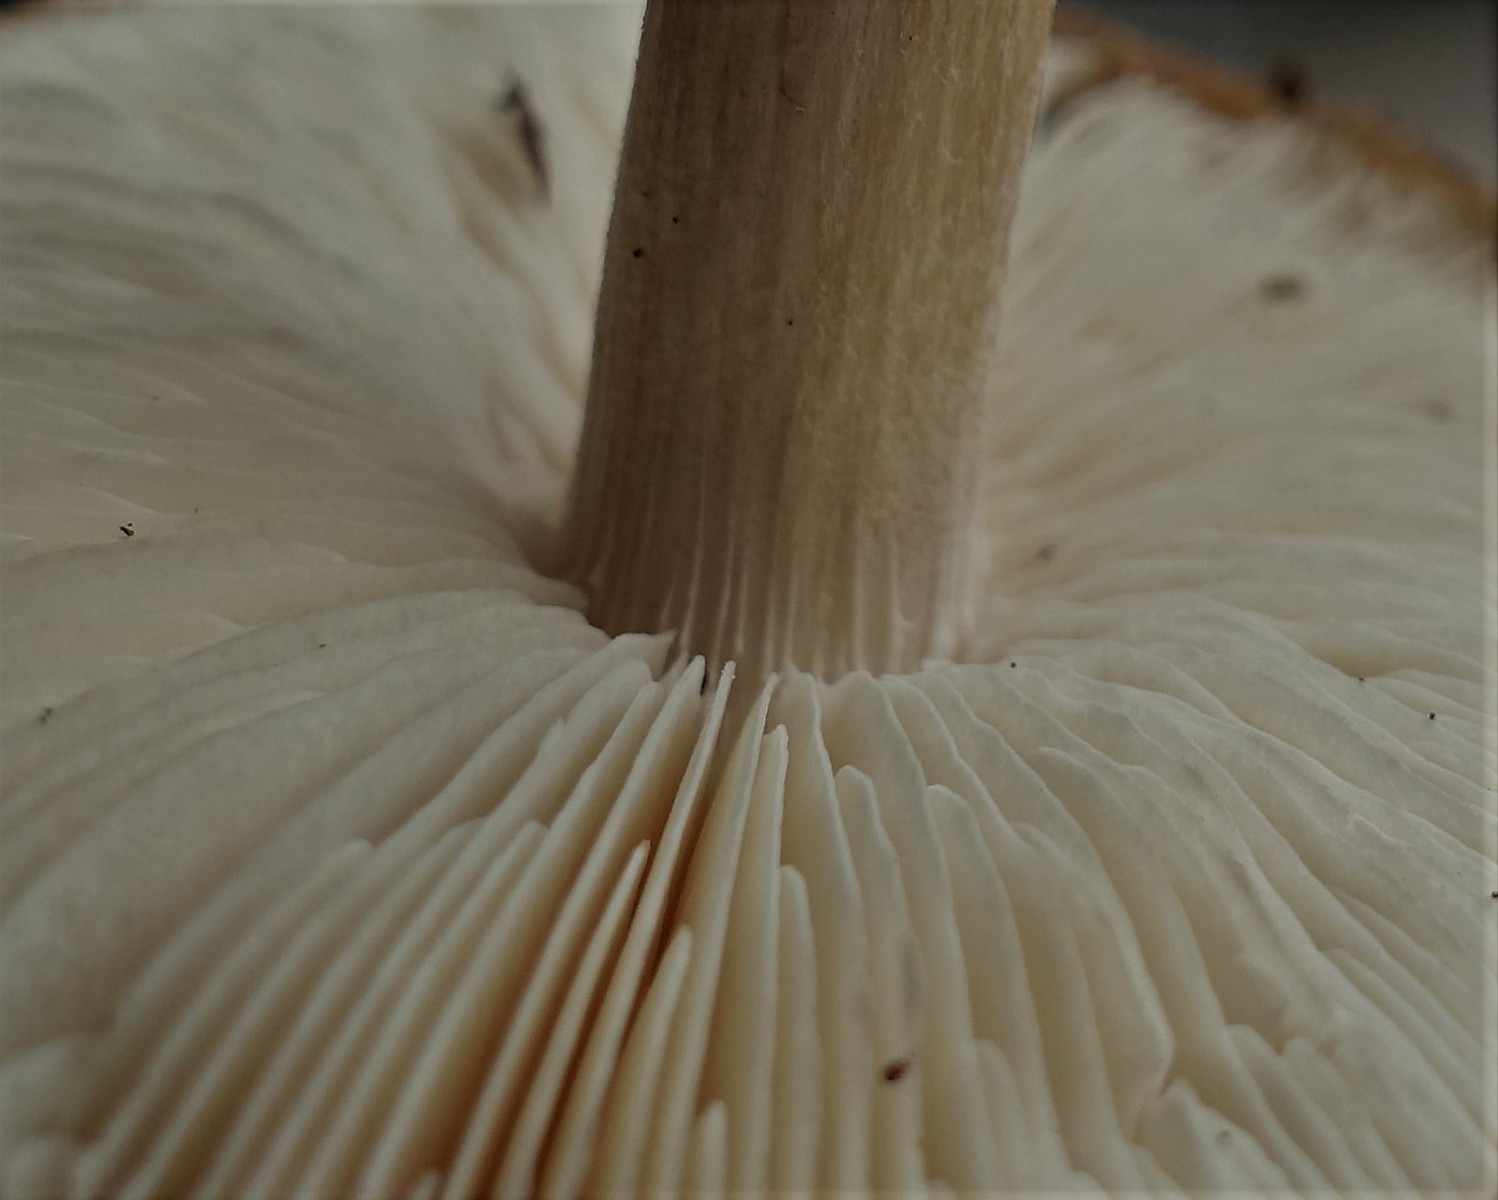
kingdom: Fungi
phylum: Basidiomycota
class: Agaricomycetes
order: Agaricales
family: Tricholomataceae
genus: Melanoleuca
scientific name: Melanoleuca polioleuca
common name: almindelig munkehat
